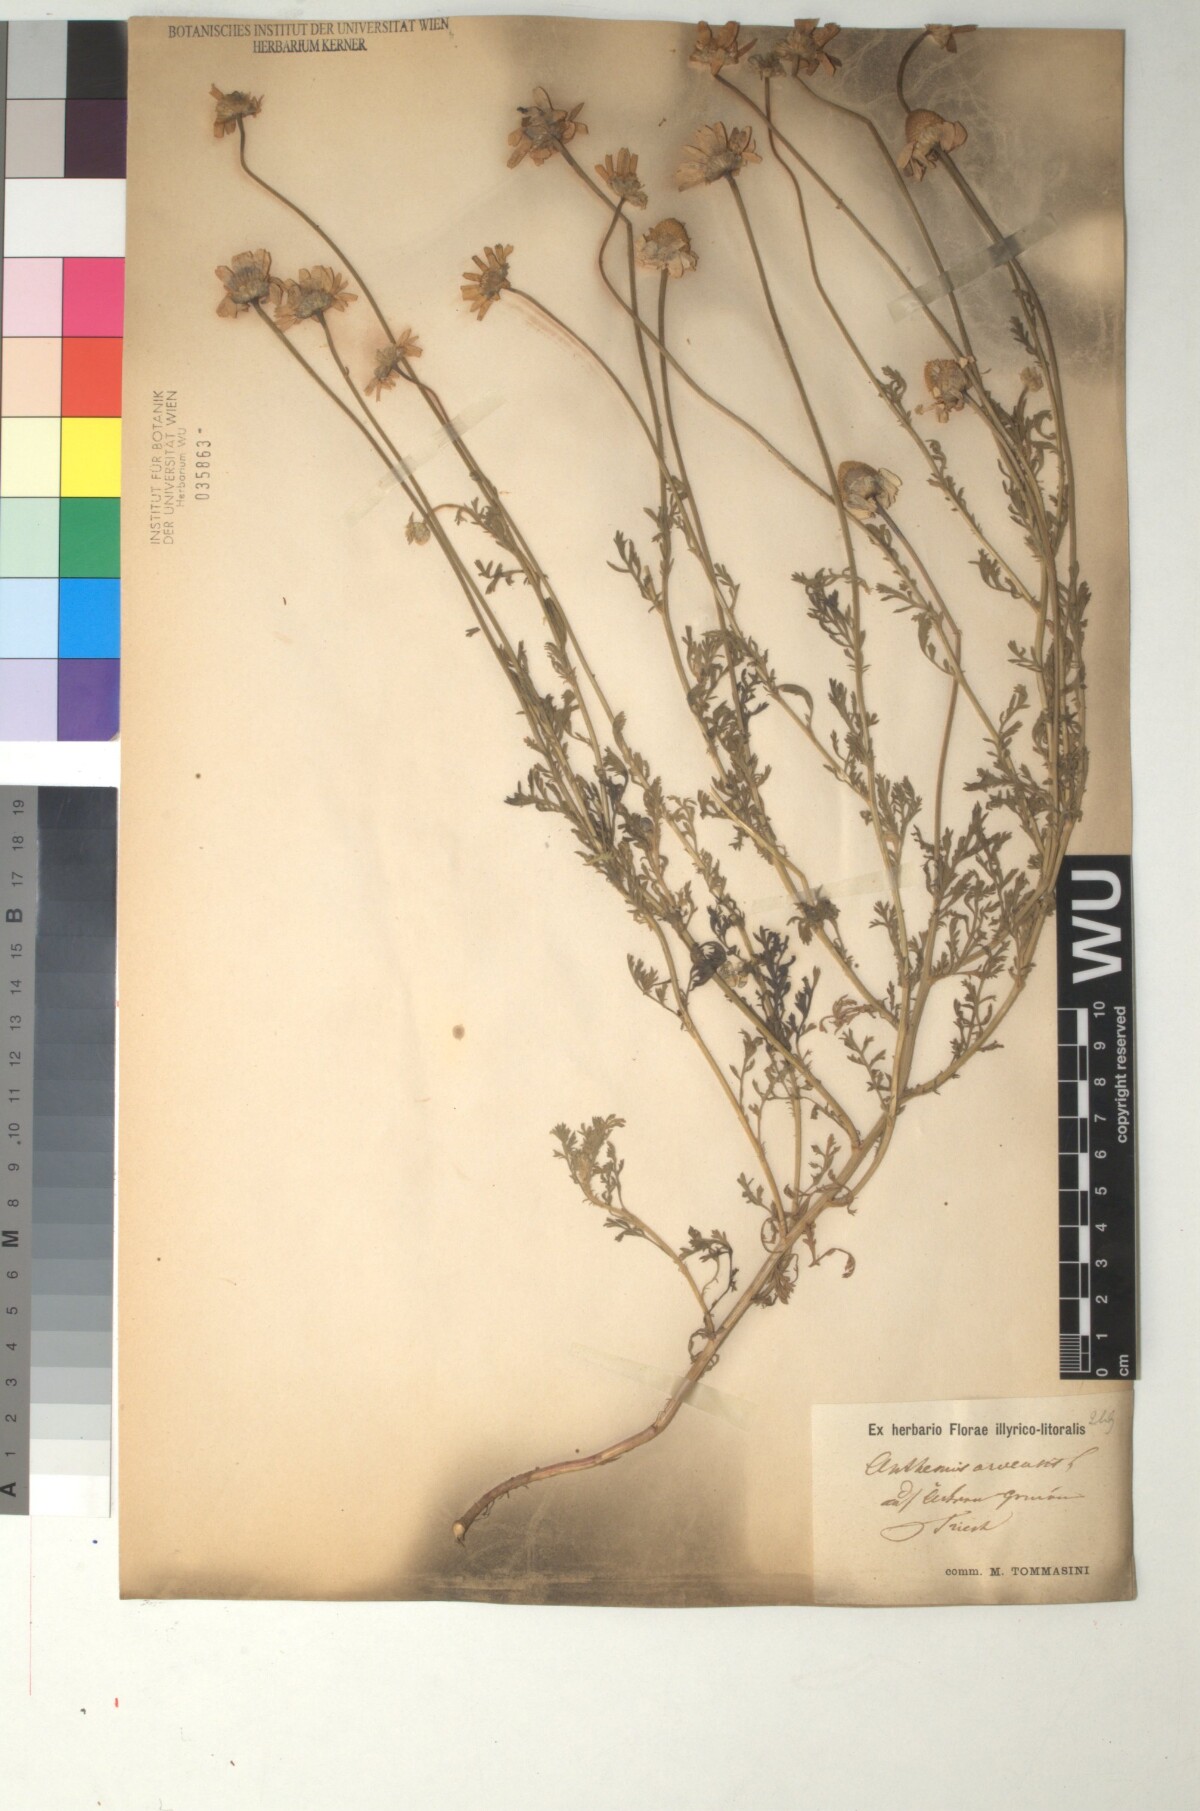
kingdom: Plantae
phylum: Tracheophyta
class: Magnoliopsida
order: Asterales
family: Asteraceae
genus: Anthemis
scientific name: Anthemis arvensis
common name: Corn chamomile
